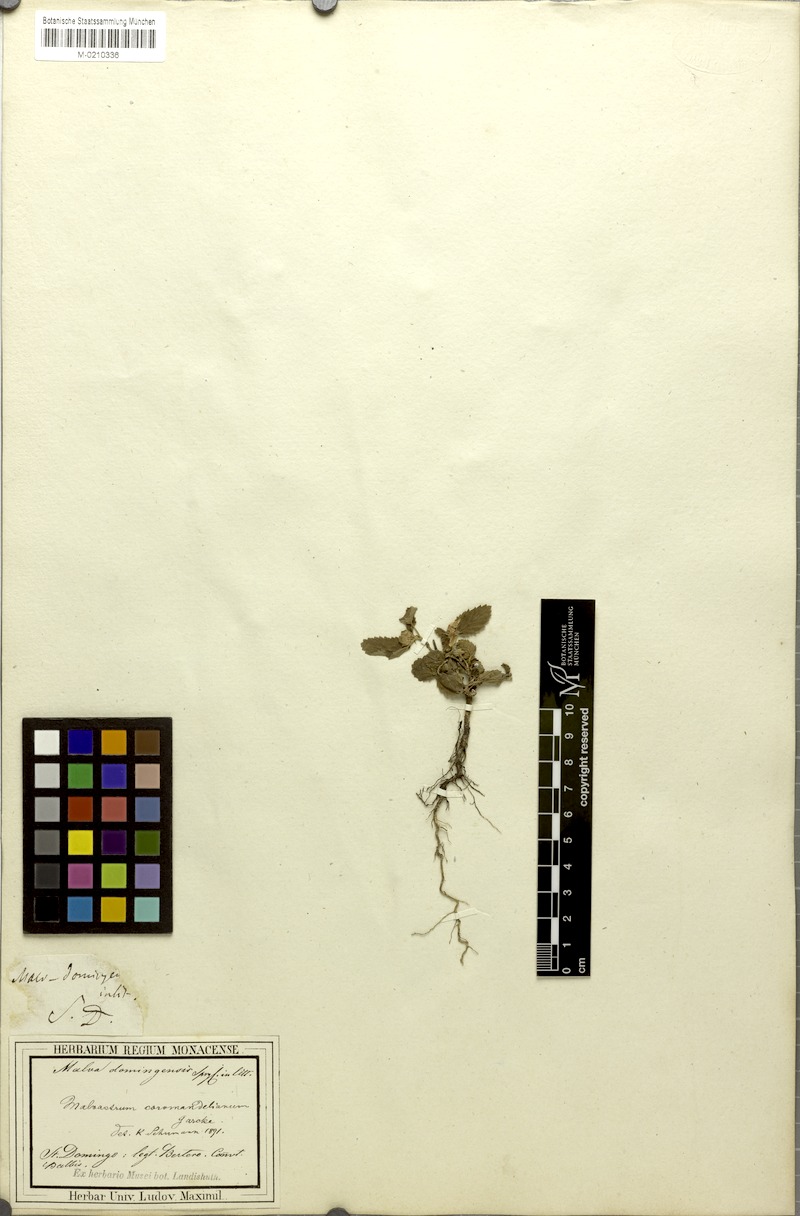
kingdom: Plantae
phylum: Tracheophyta
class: Magnoliopsida
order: Malvales
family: Malvaceae
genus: Malvastrum
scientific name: Malvastrum coromandelianum
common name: Threelobe false mallow
